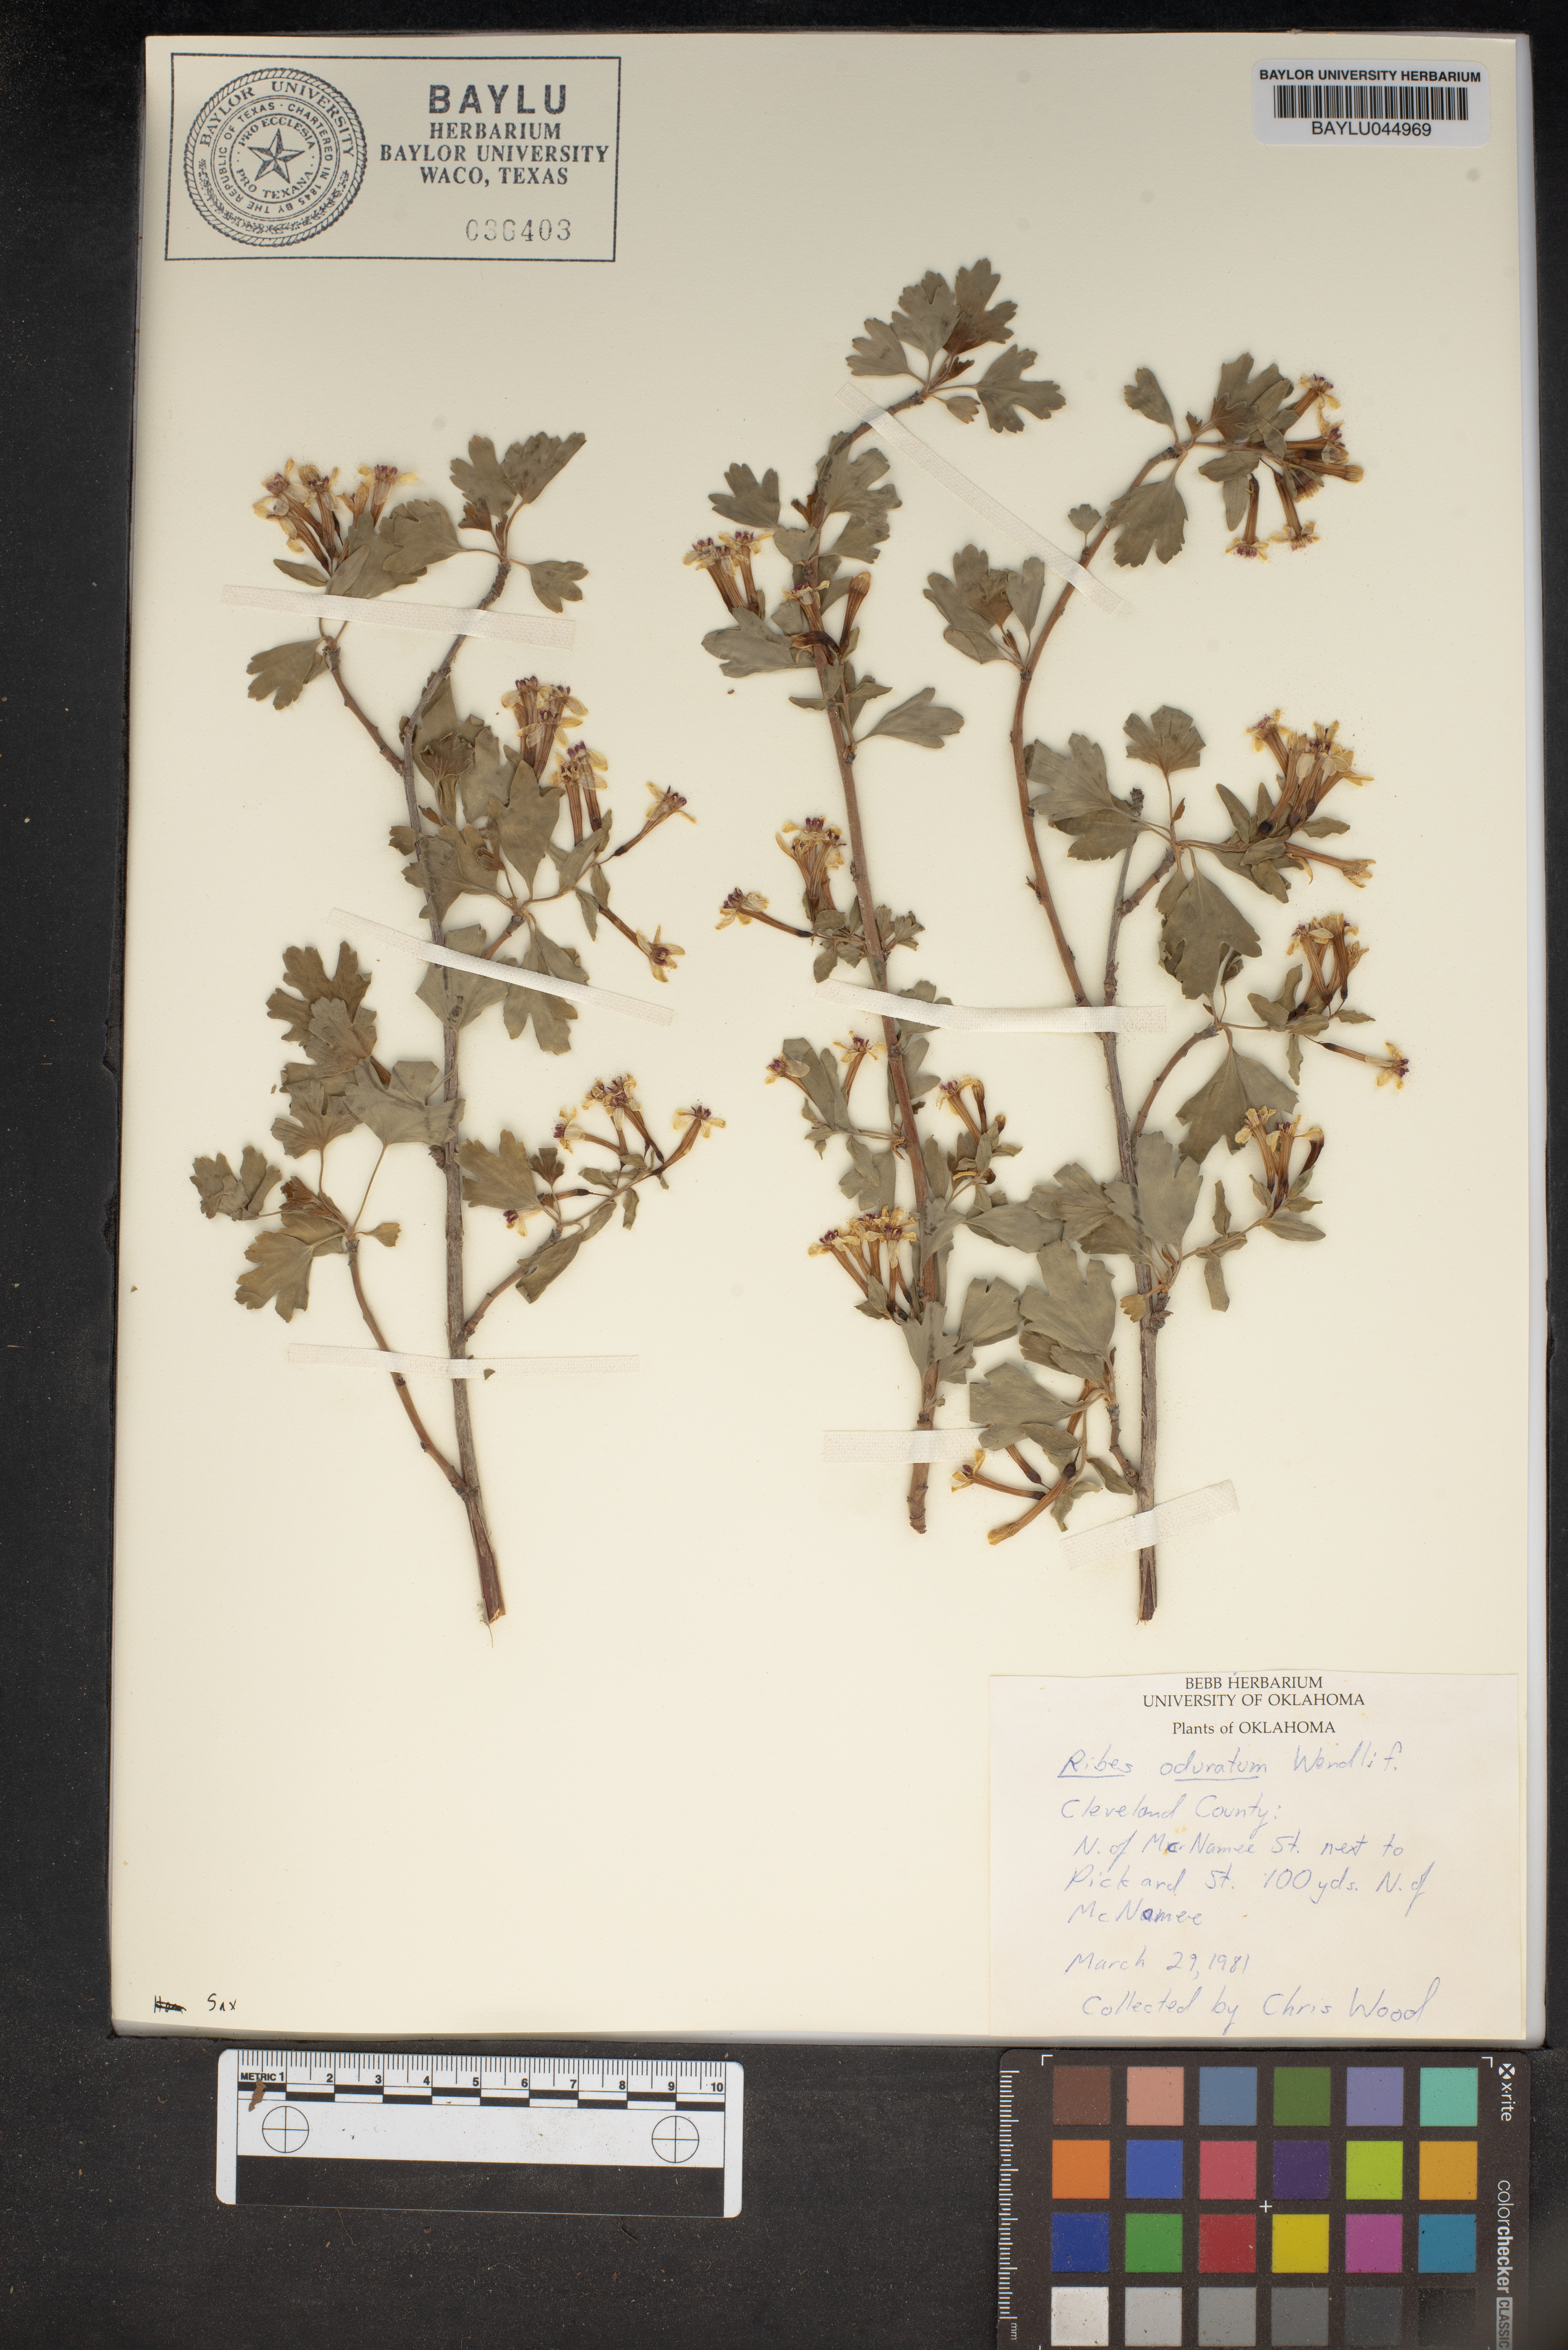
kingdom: Plantae
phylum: Tracheophyta
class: Magnoliopsida
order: Saxifragales
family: Grossulariaceae
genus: Ribes
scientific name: Ribes aureum
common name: Golden currant
